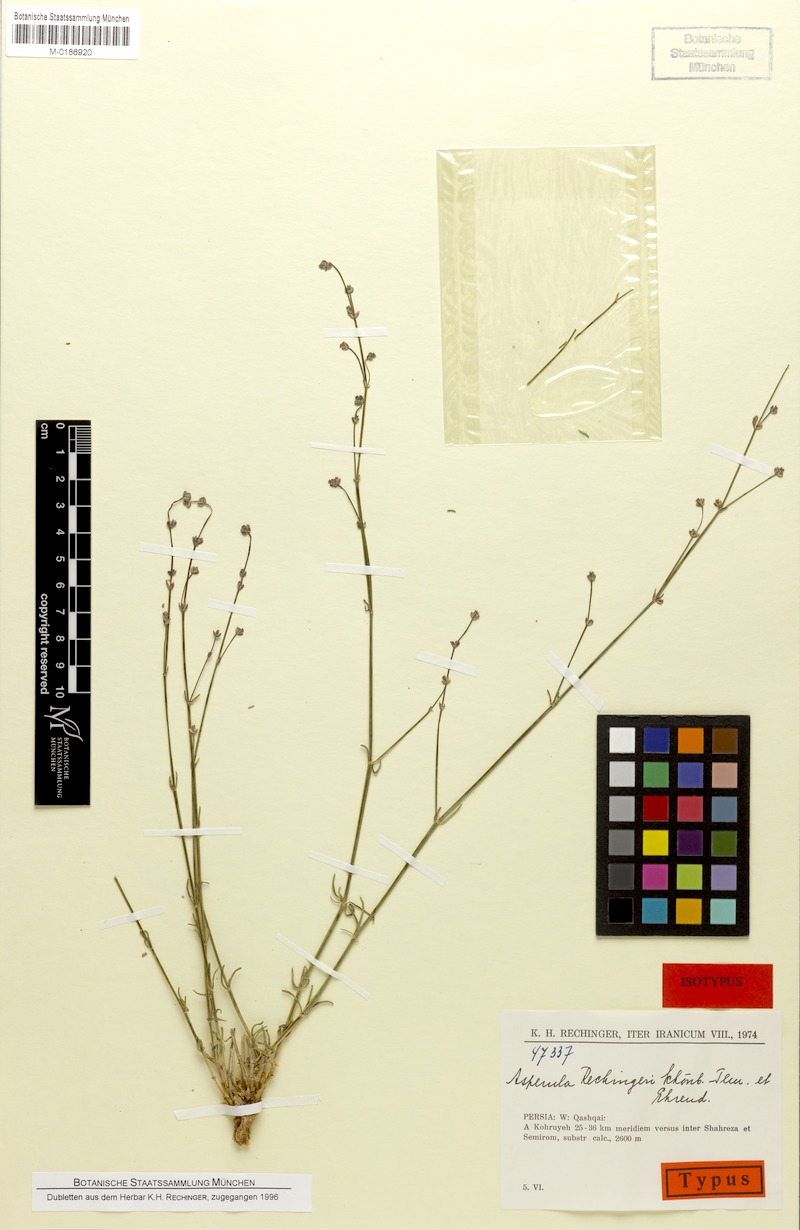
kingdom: Plantae
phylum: Tracheophyta
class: Magnoliopsida
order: Gentianales
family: Rubiaceae
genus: Asperula
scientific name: Asperula rechingeri
